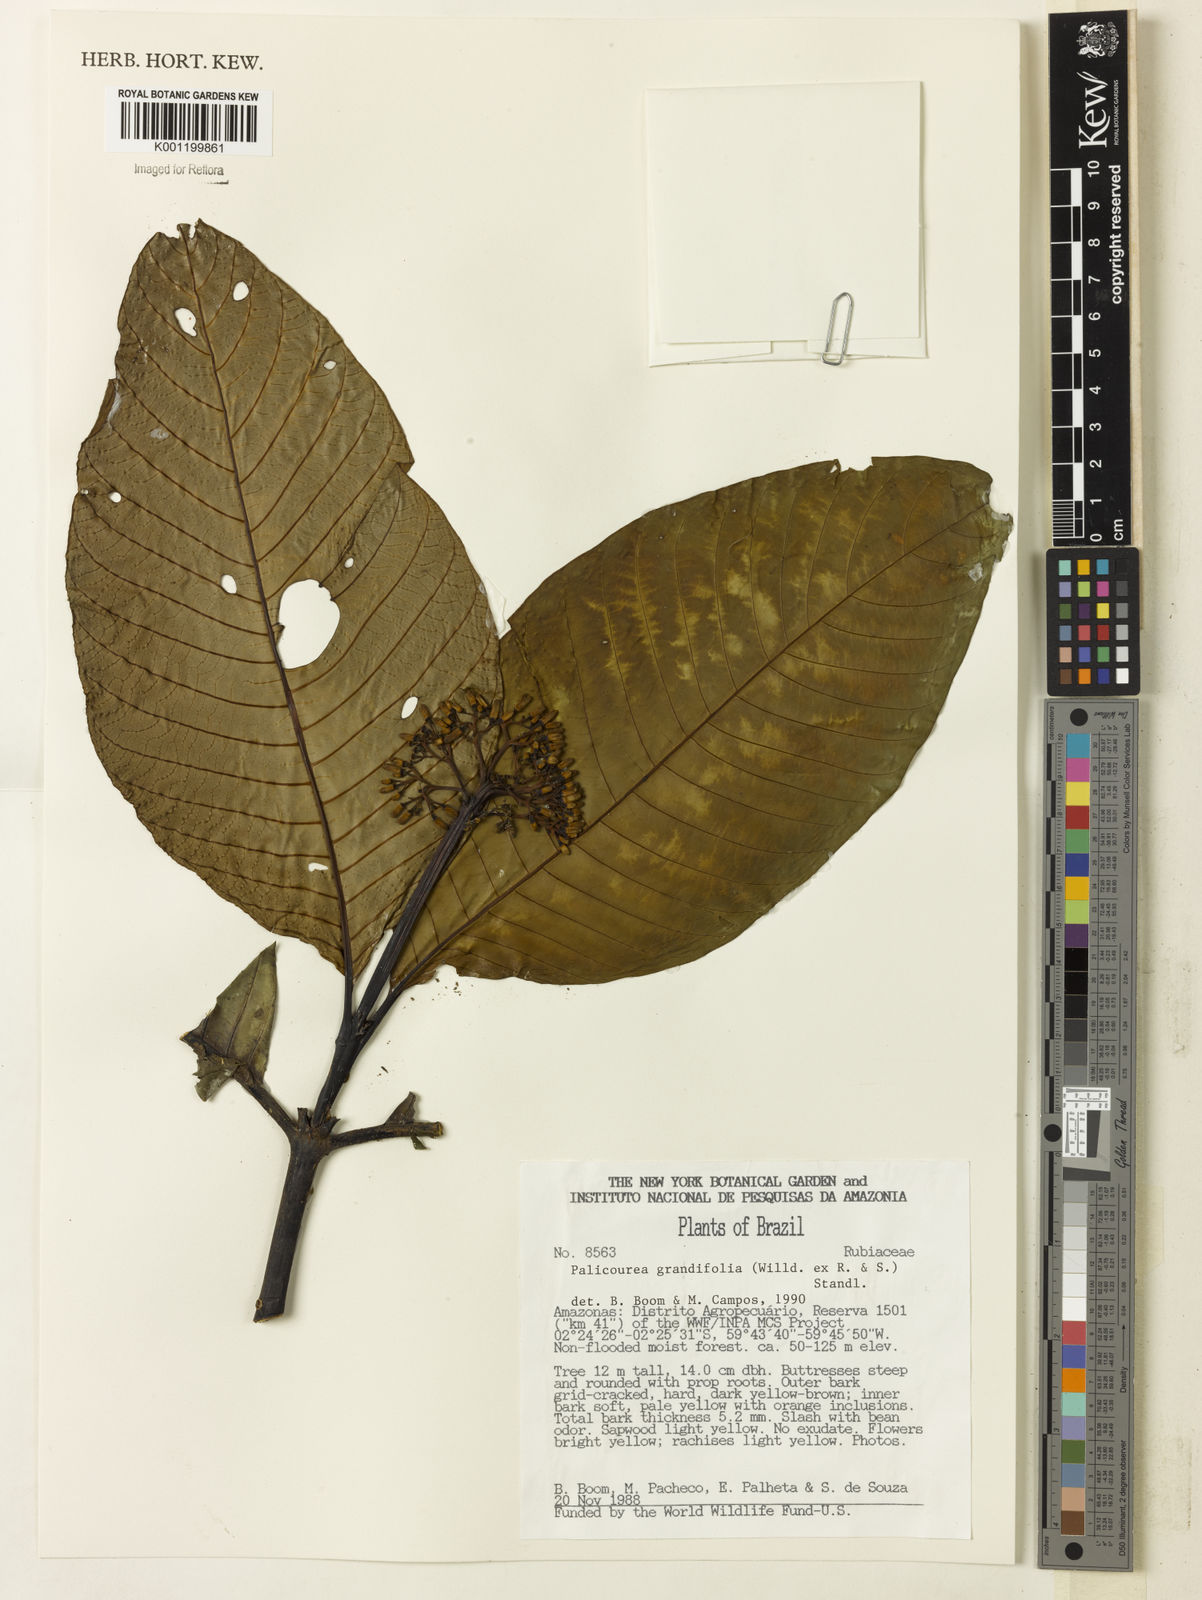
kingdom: Plantae
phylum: Tracheophyta
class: Magnoliopsida
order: Gentianales
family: Rubiaceae
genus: Palicourea
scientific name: Palicourea grandifolia
